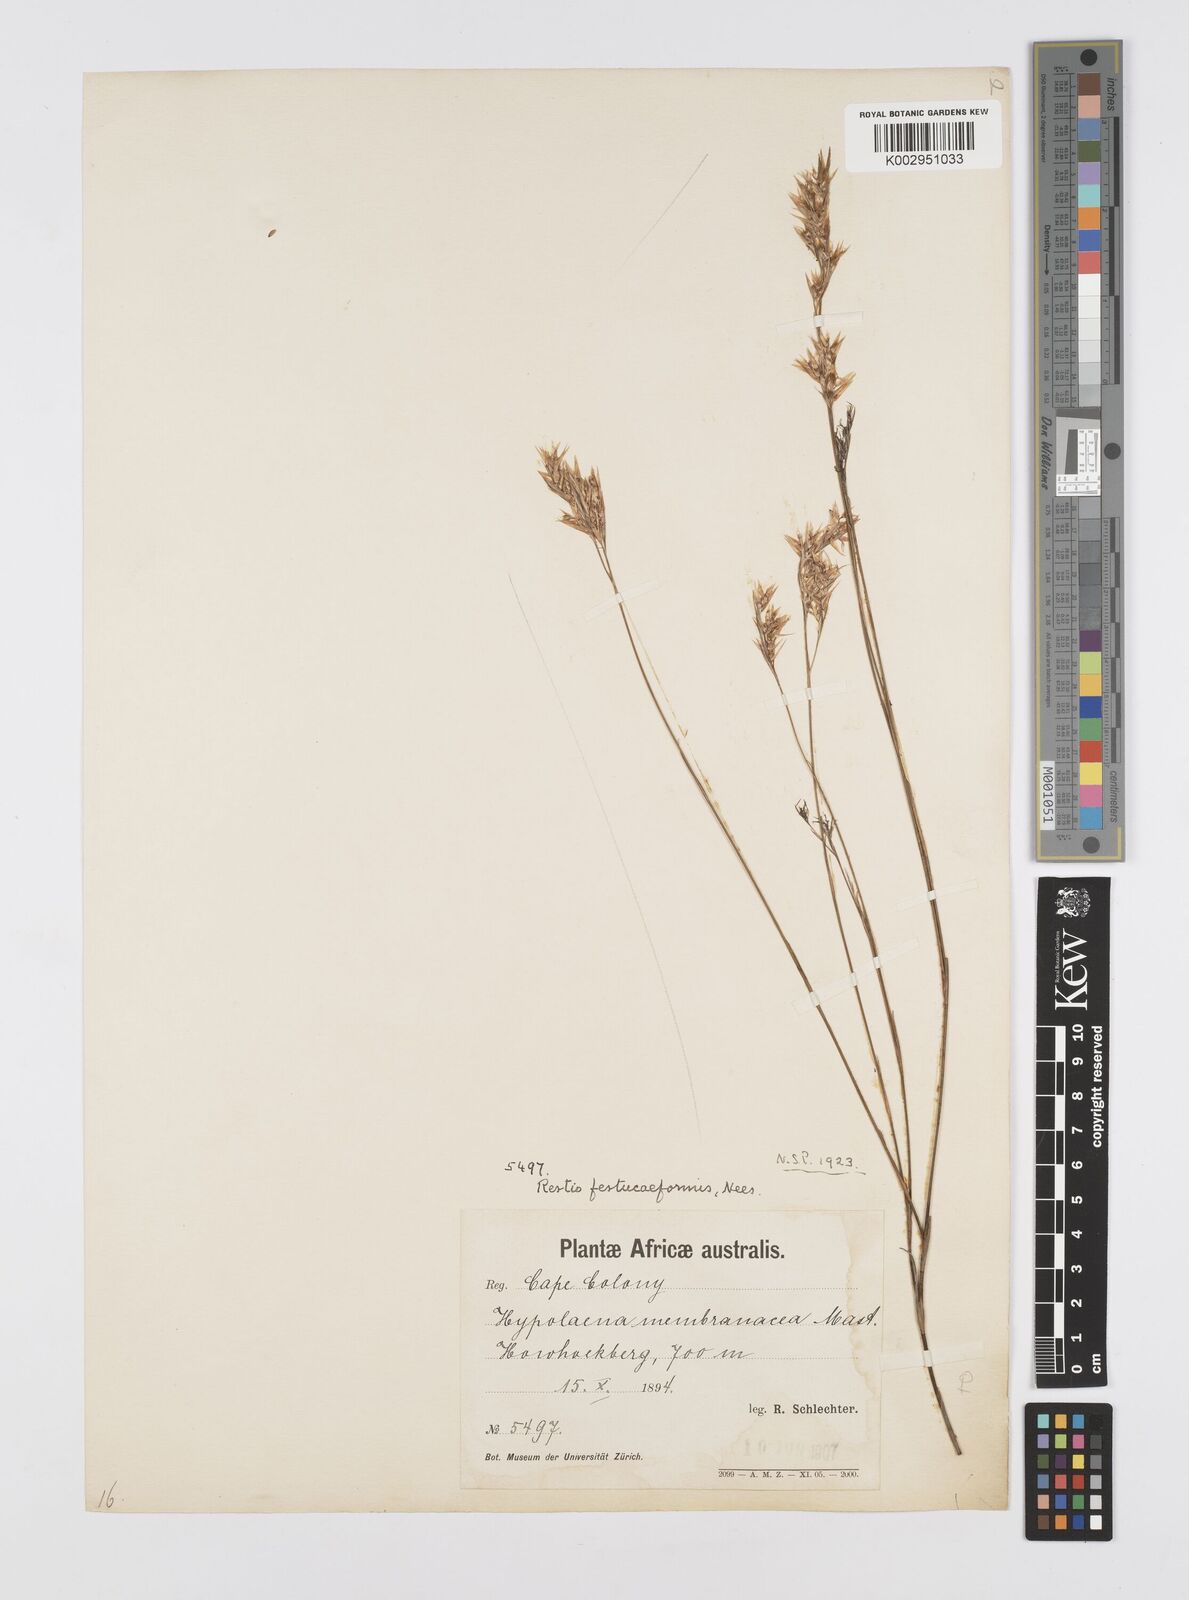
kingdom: Plantae
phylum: Tracheophyta
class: Liliopsida
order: Poales
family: Restionaceae
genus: Restio
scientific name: Restio festuciformis
